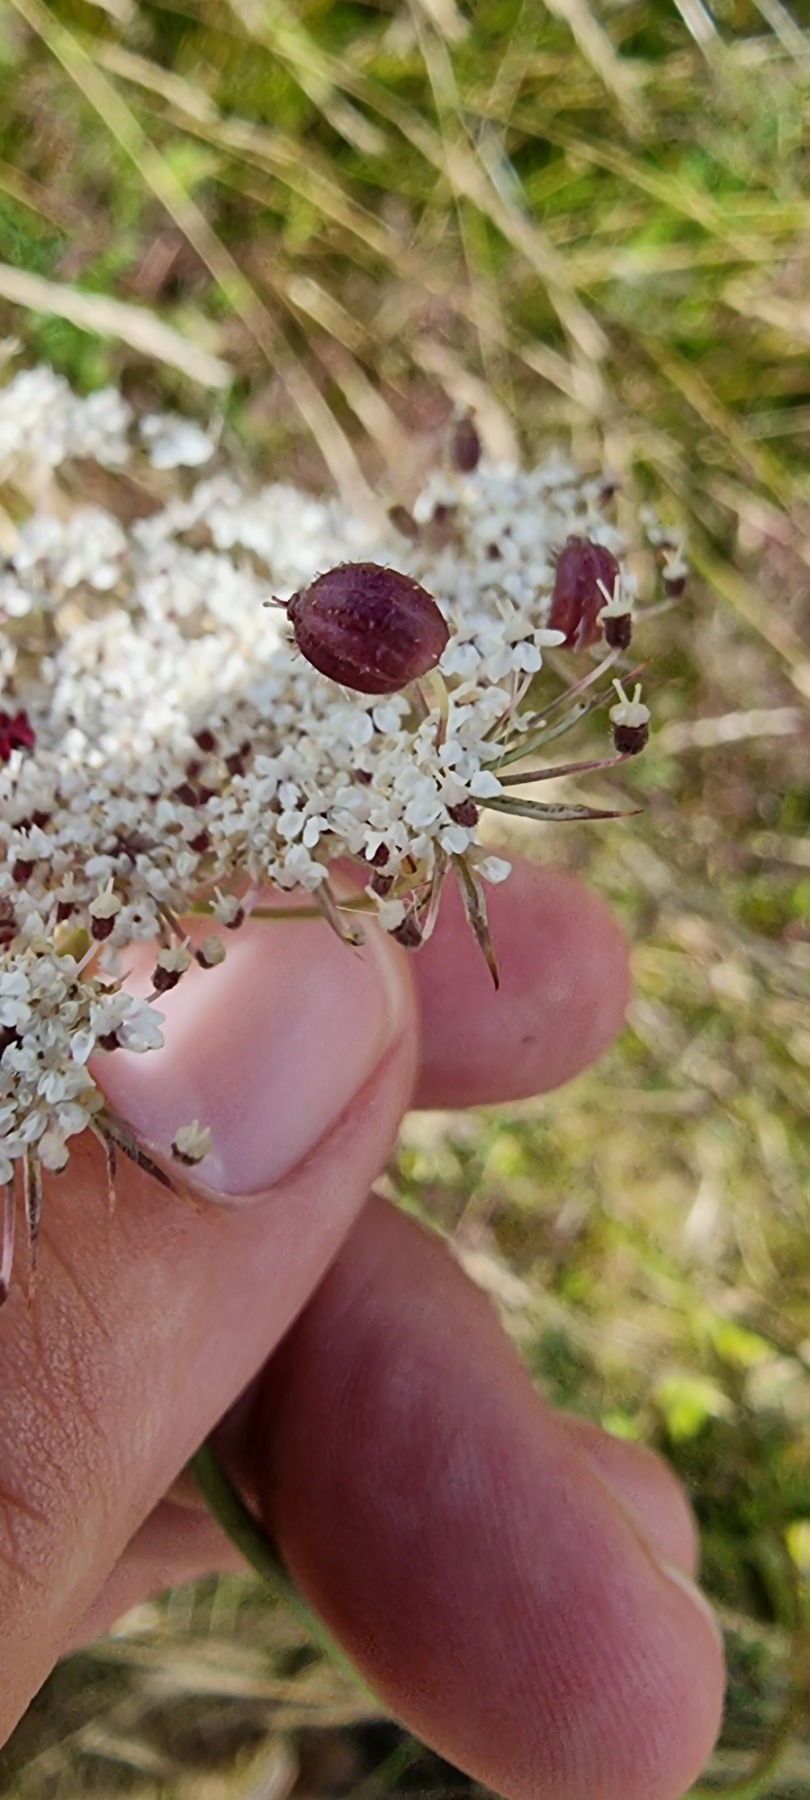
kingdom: Animalia
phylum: Arthropoda
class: Insecta
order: Diptera
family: Cecidomyiidae
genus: Kiefferia
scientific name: Kiefferia pericarpiicola
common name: Gulerodsgalmyg
